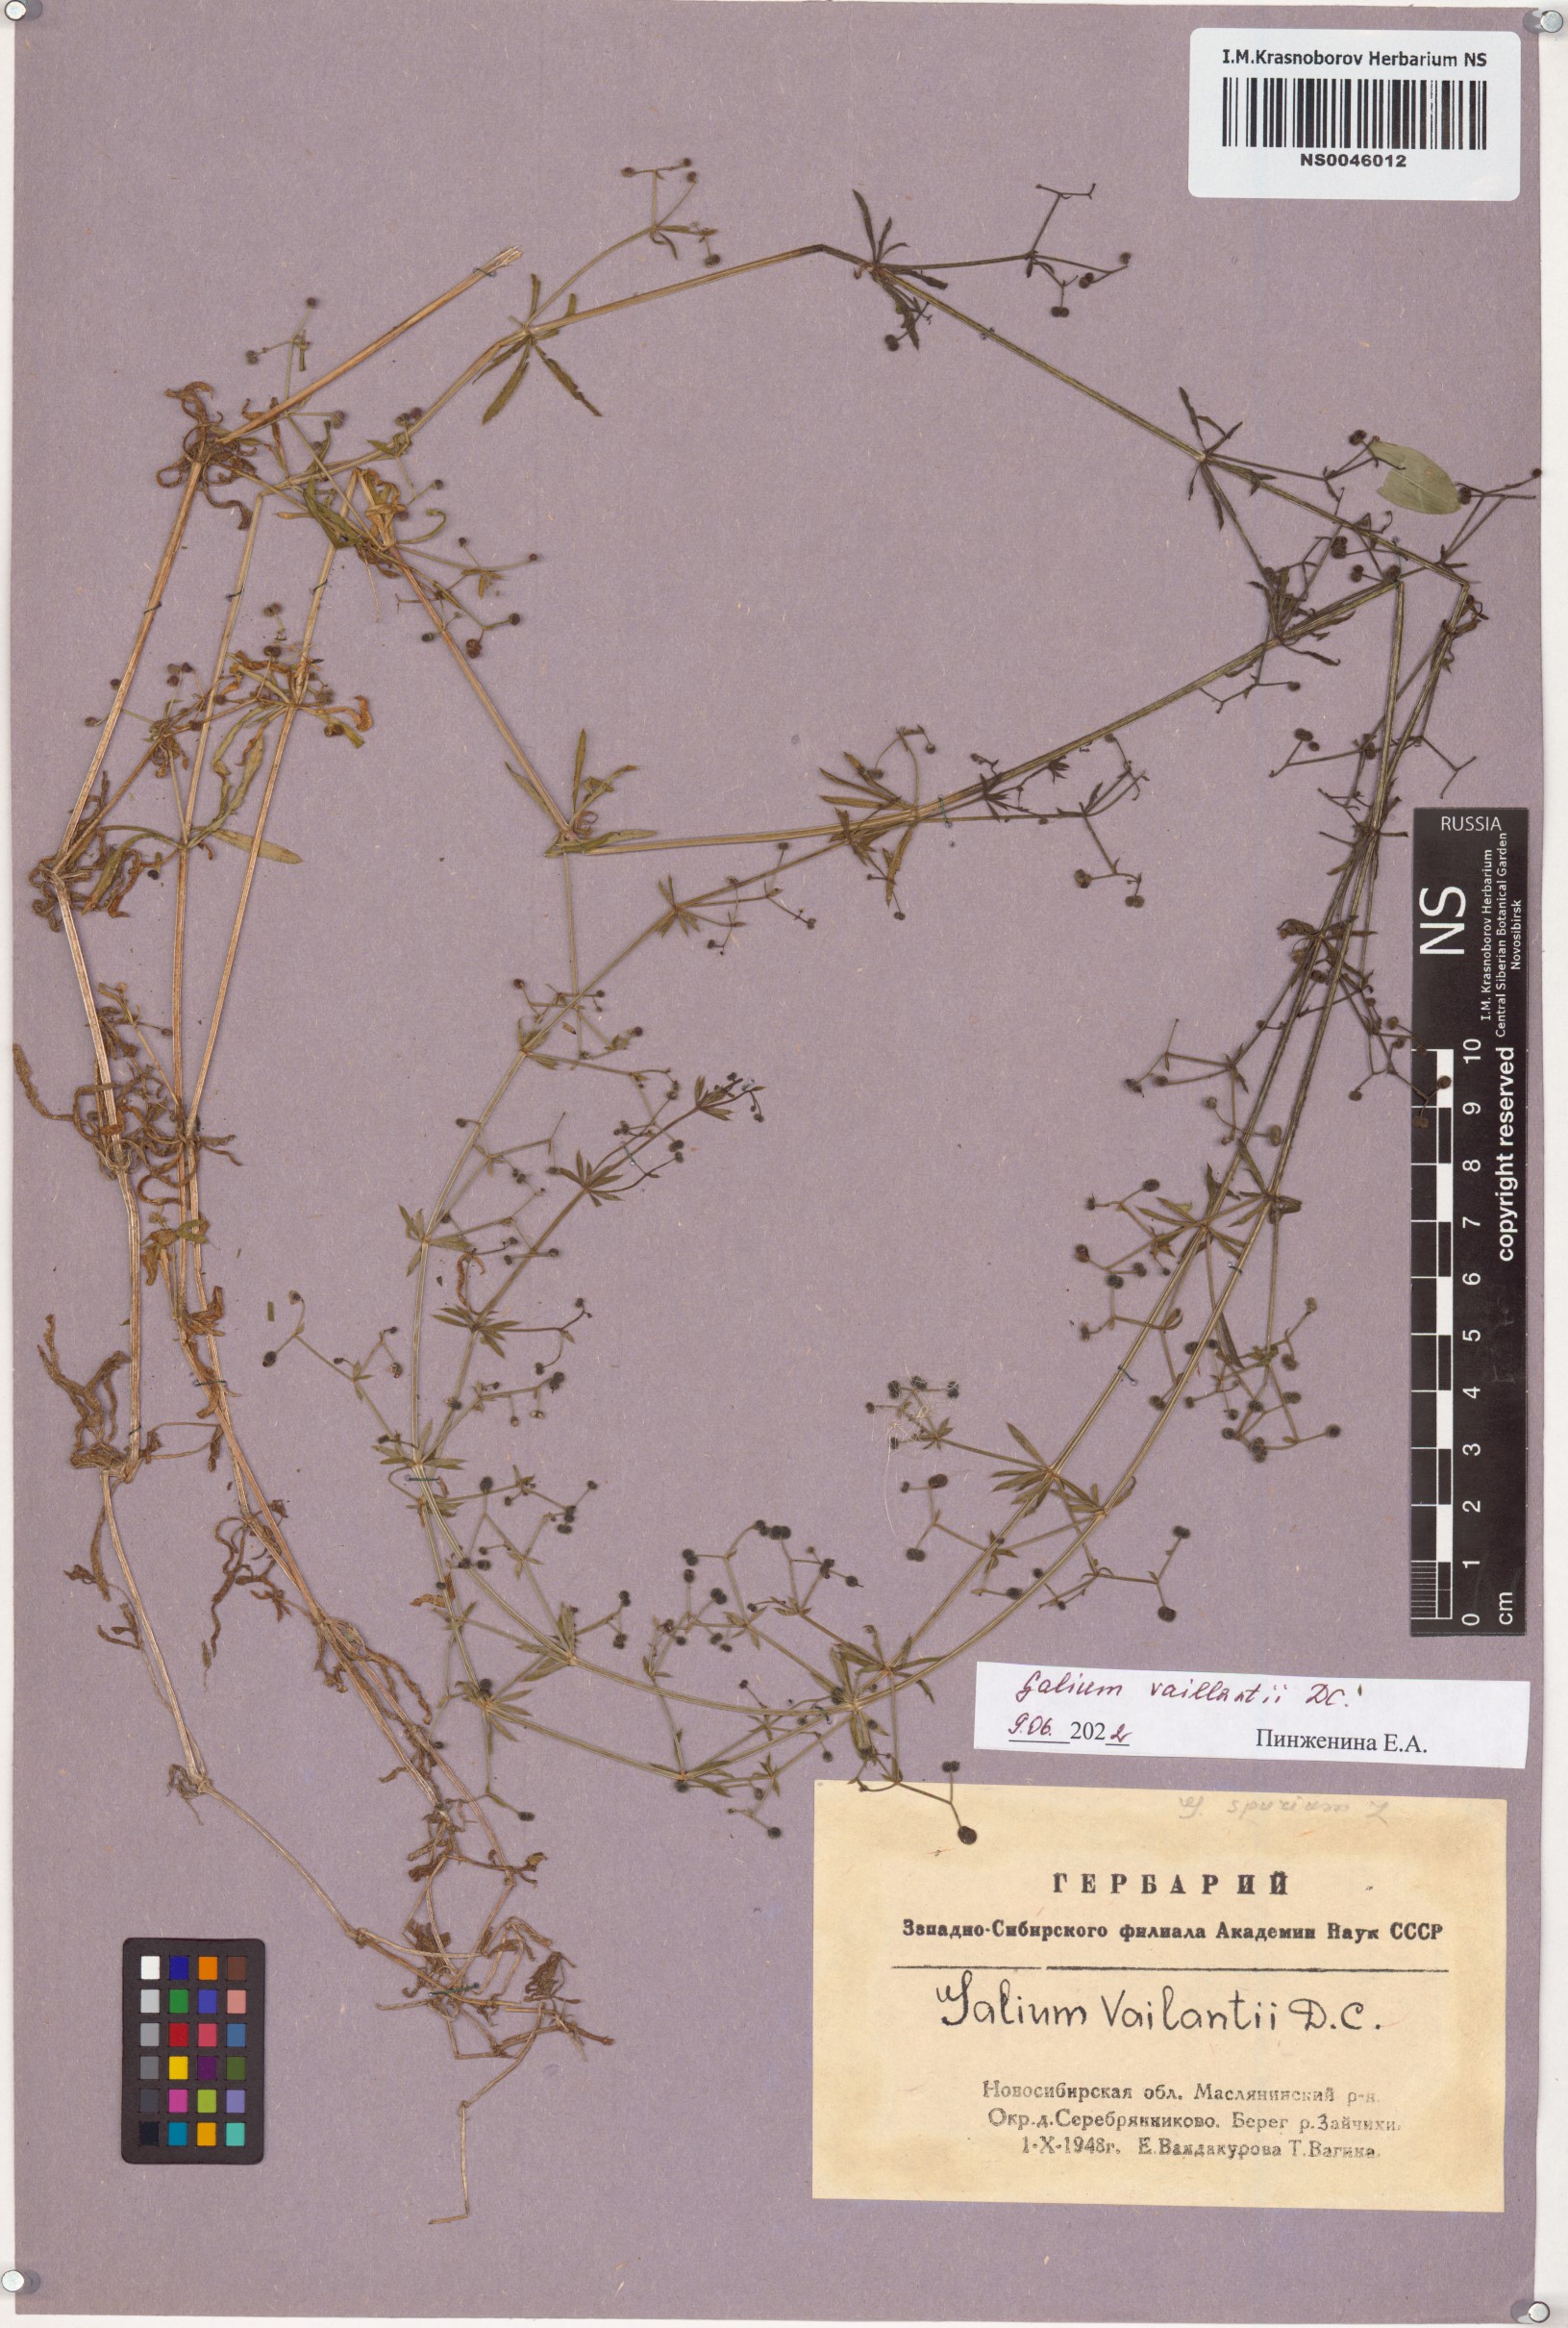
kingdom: Plantae
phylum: Tracheophyta
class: Magnoliopsida
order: Gentianales
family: Rubiaceae
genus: Galium
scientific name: Galium spurium
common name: False cleavers
